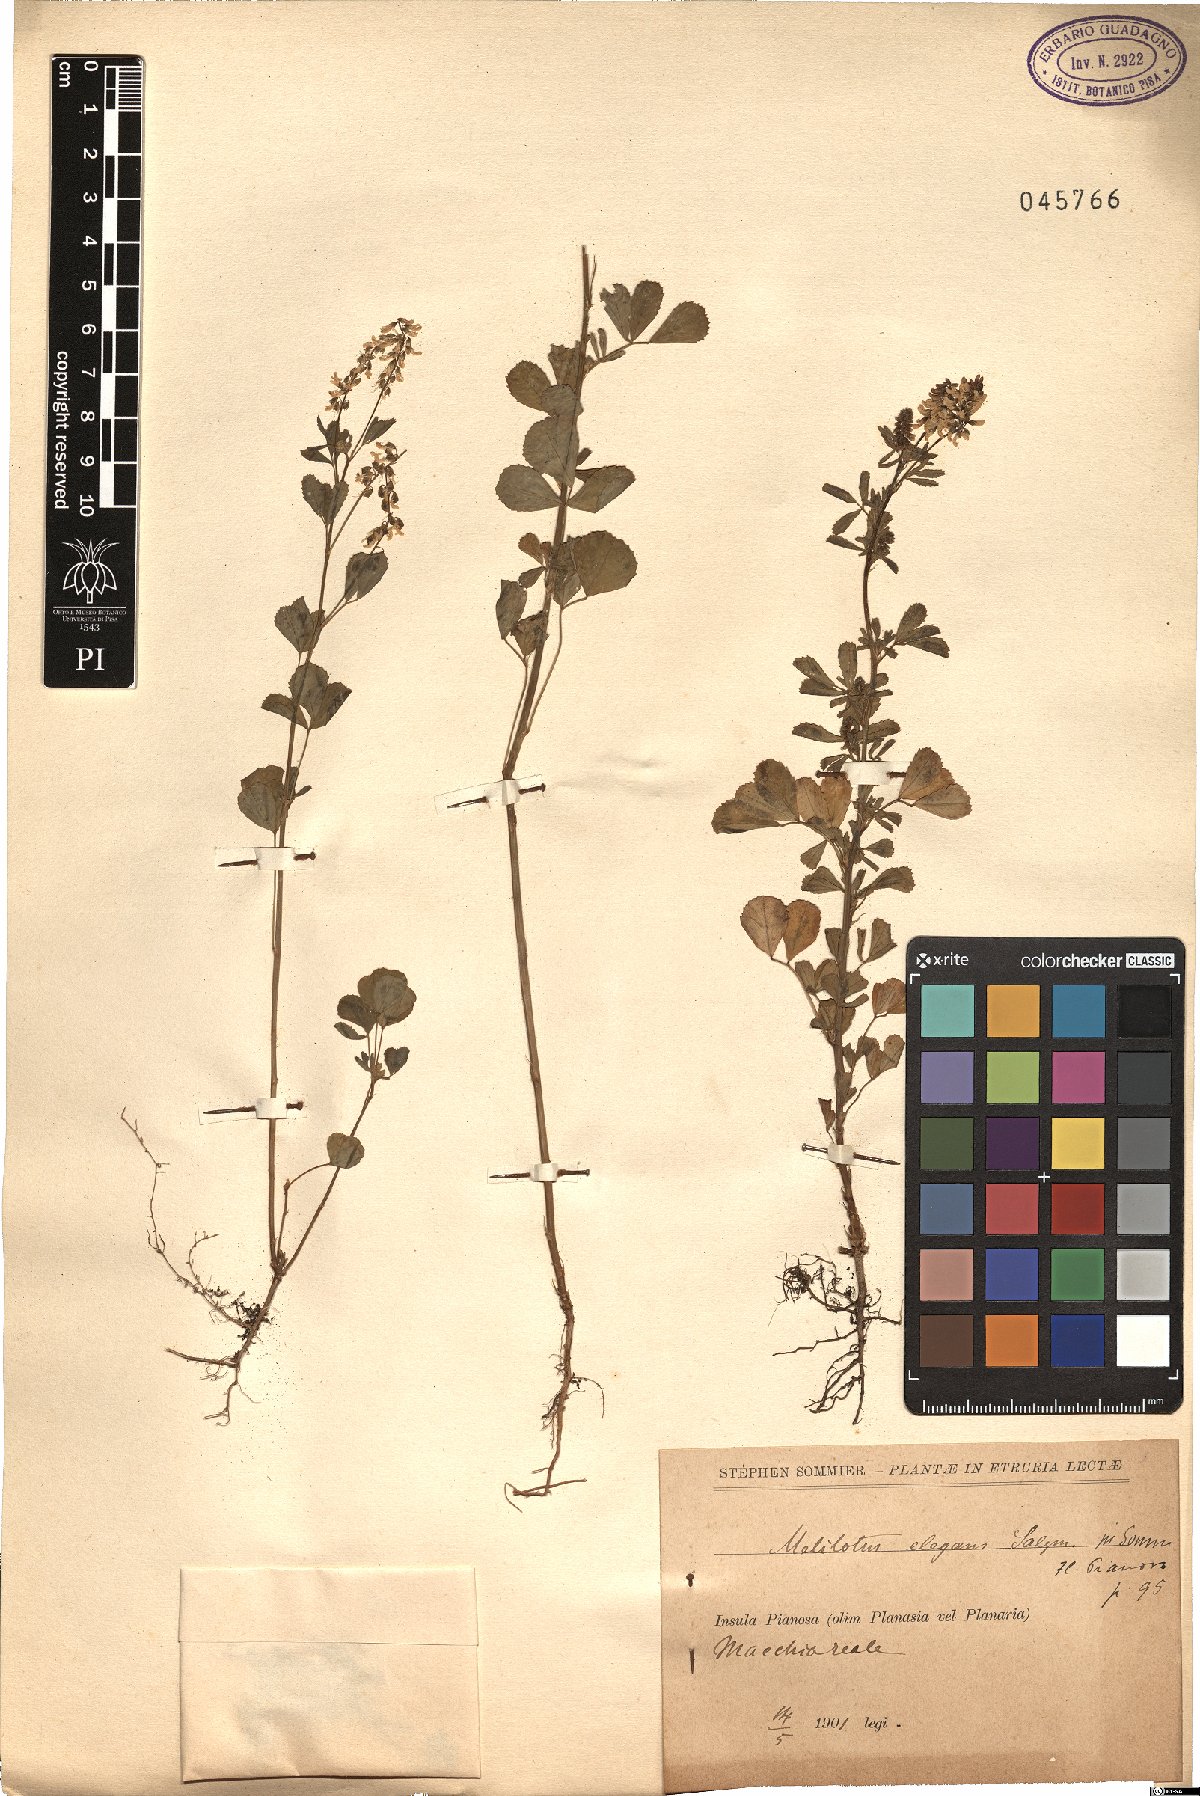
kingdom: Plantae
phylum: Tracheophyta
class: Magnoliopsida
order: Fabales
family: Fabaceae
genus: Melilotus
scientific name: Melilotus elegans
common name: Elegant sweet-clover
